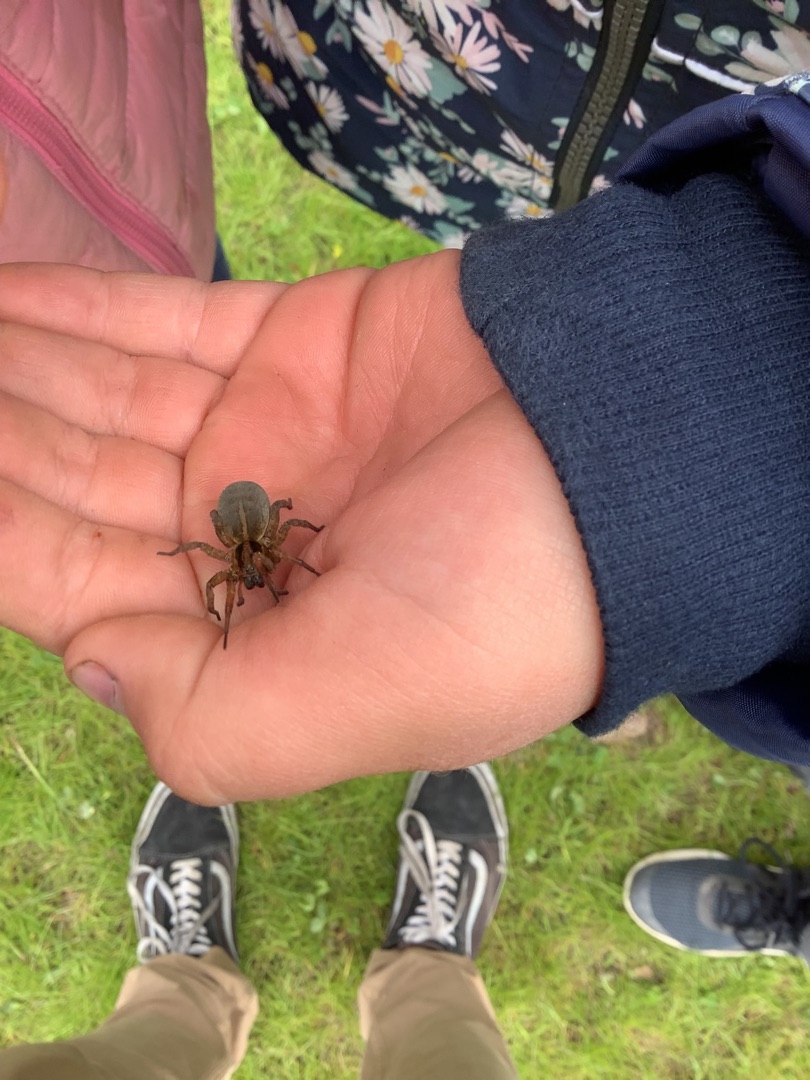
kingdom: Animalia
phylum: Arthropoda
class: Arachnida
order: Araneae
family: Lycosidae
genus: Trochosa
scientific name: Trochosa ruricola
